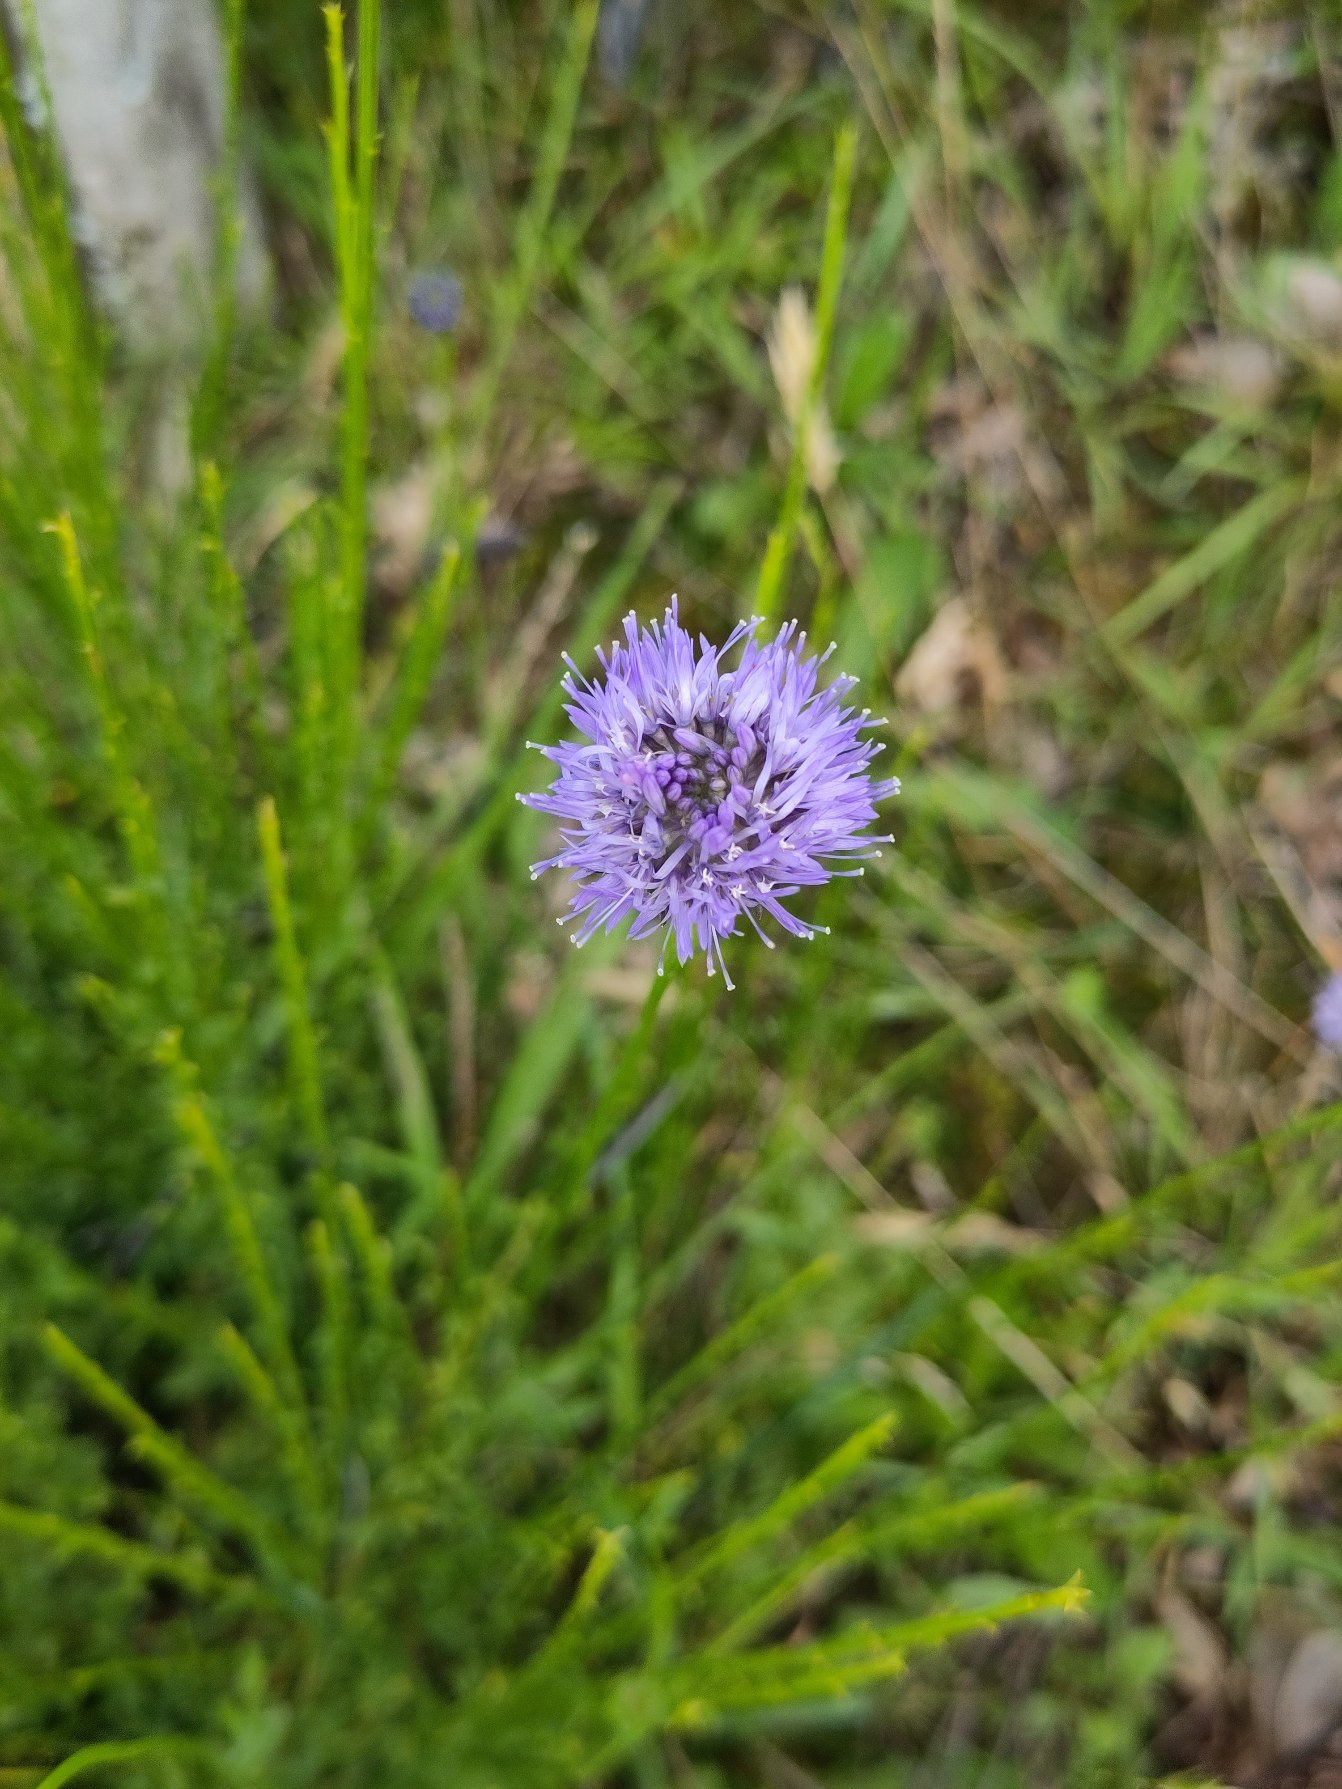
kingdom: Plantae
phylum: Tracheophyta
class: Magnoliopsida
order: Asterales
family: Campanulaceae
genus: Jasione
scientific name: Jasione montana
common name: Blåmunke
